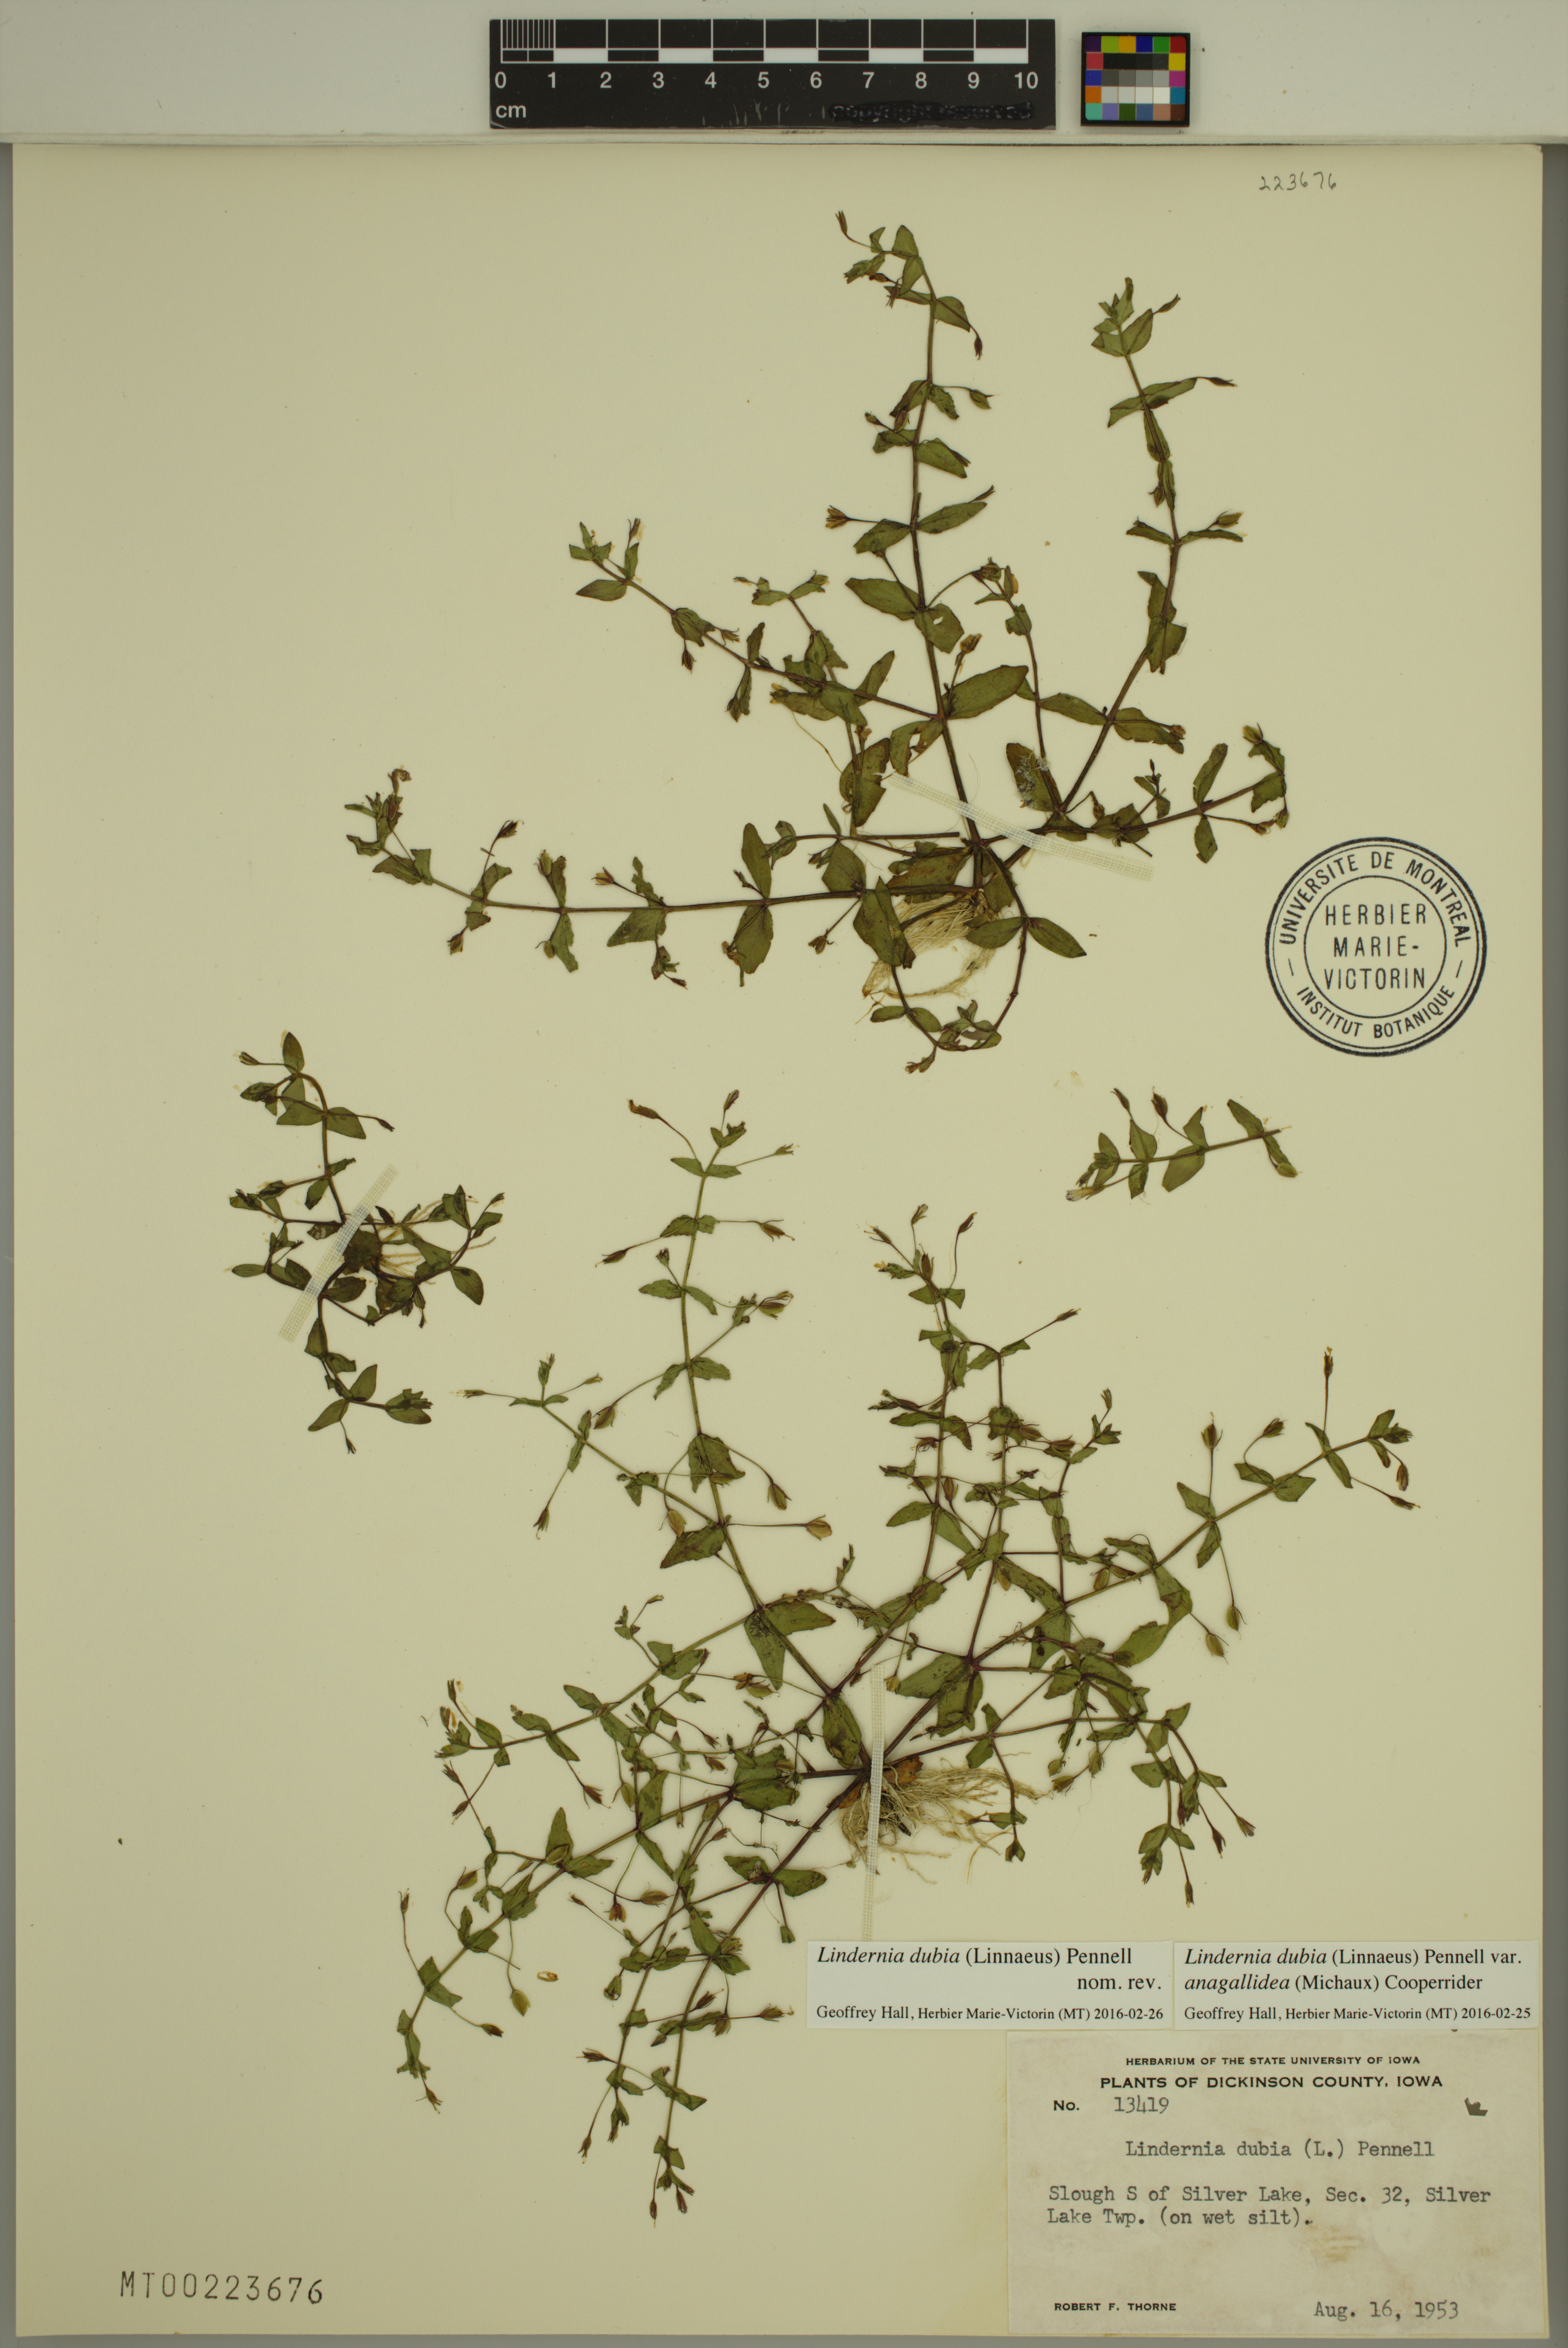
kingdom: Plantae
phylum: Tracheophyta
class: Magnoliopsida
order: Lamiales
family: Linderniaceae
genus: Lindernia
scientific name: Lindernia dubia
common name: Annual false pimpernel
